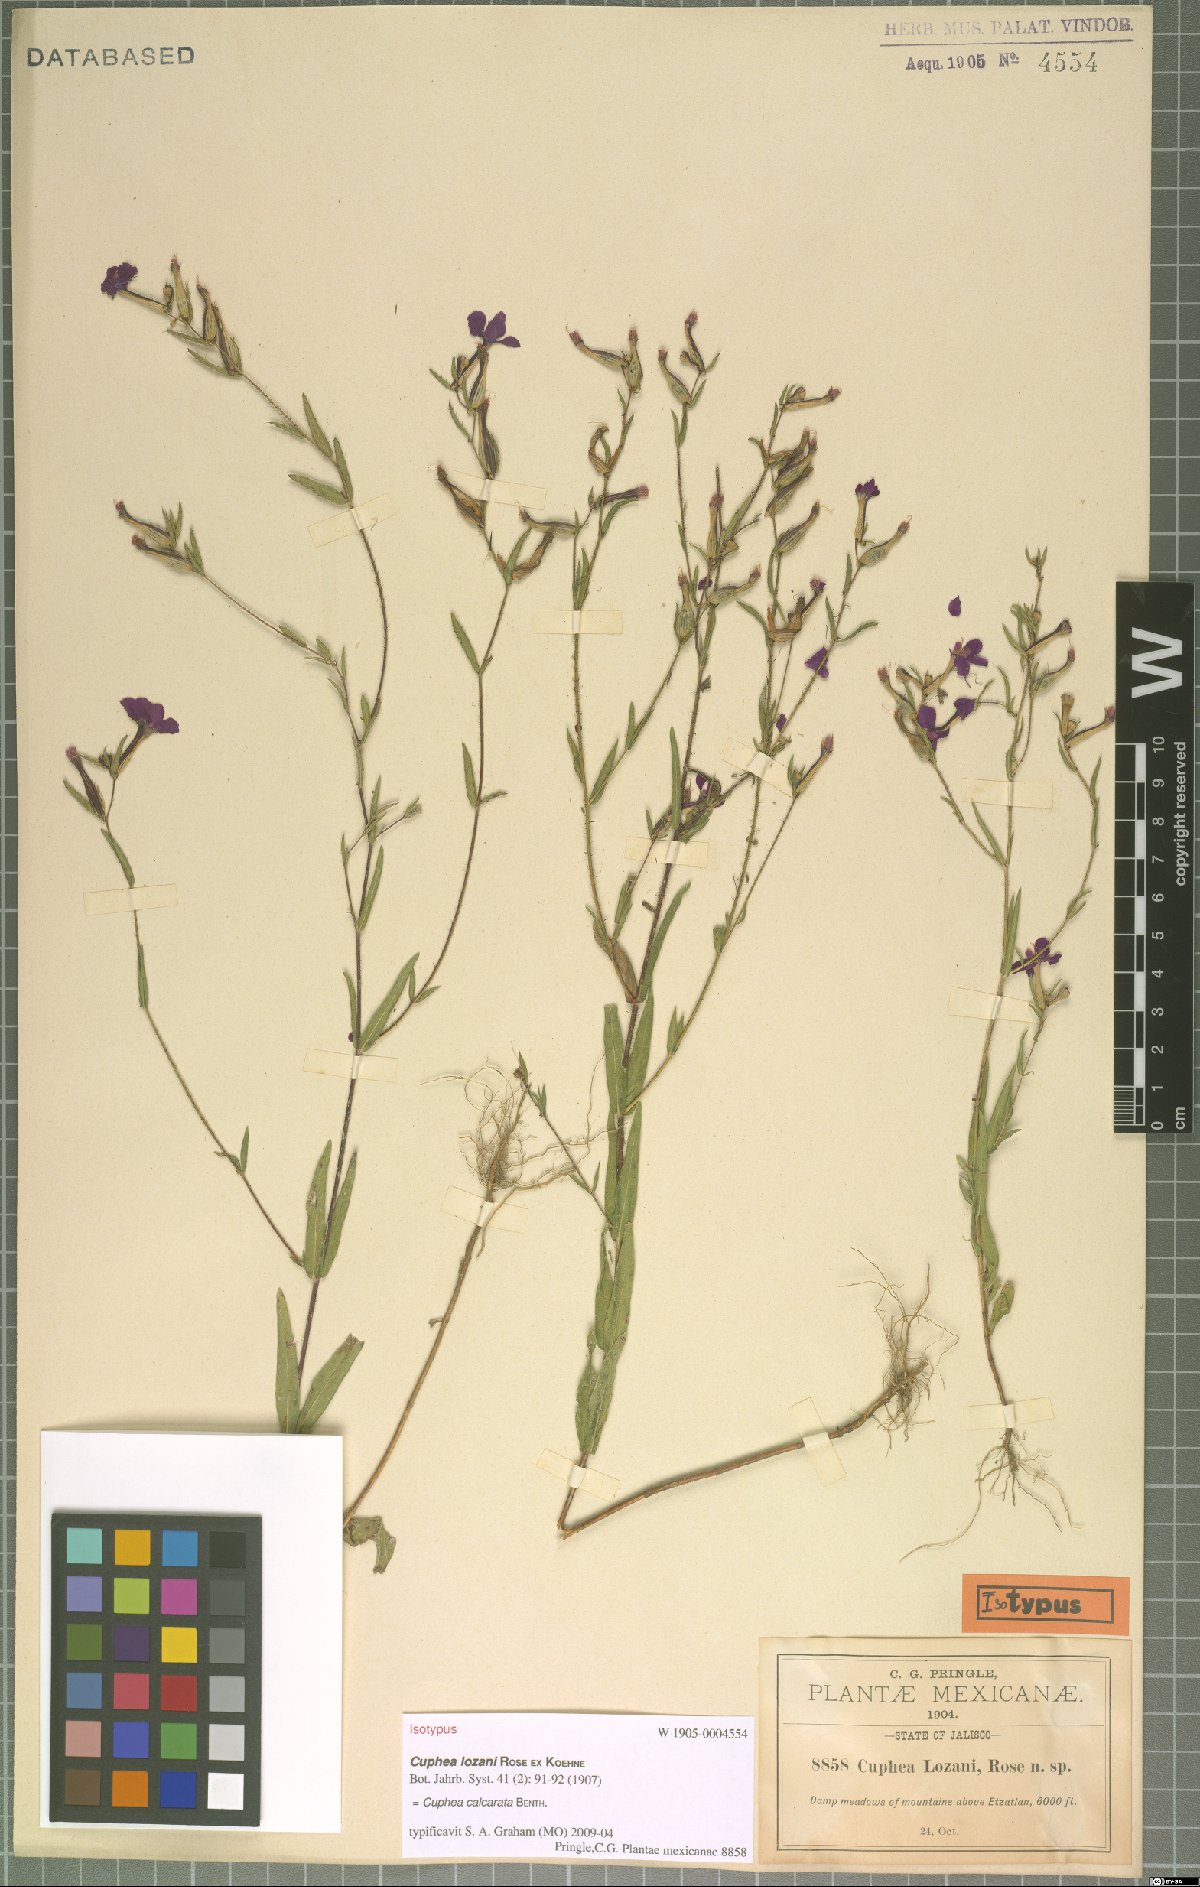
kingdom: Plantae
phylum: Tracheophyta
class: Magnoliopsida
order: Myrtales
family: Lythraceae
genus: Cuphea
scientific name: Cuphea calcarata
